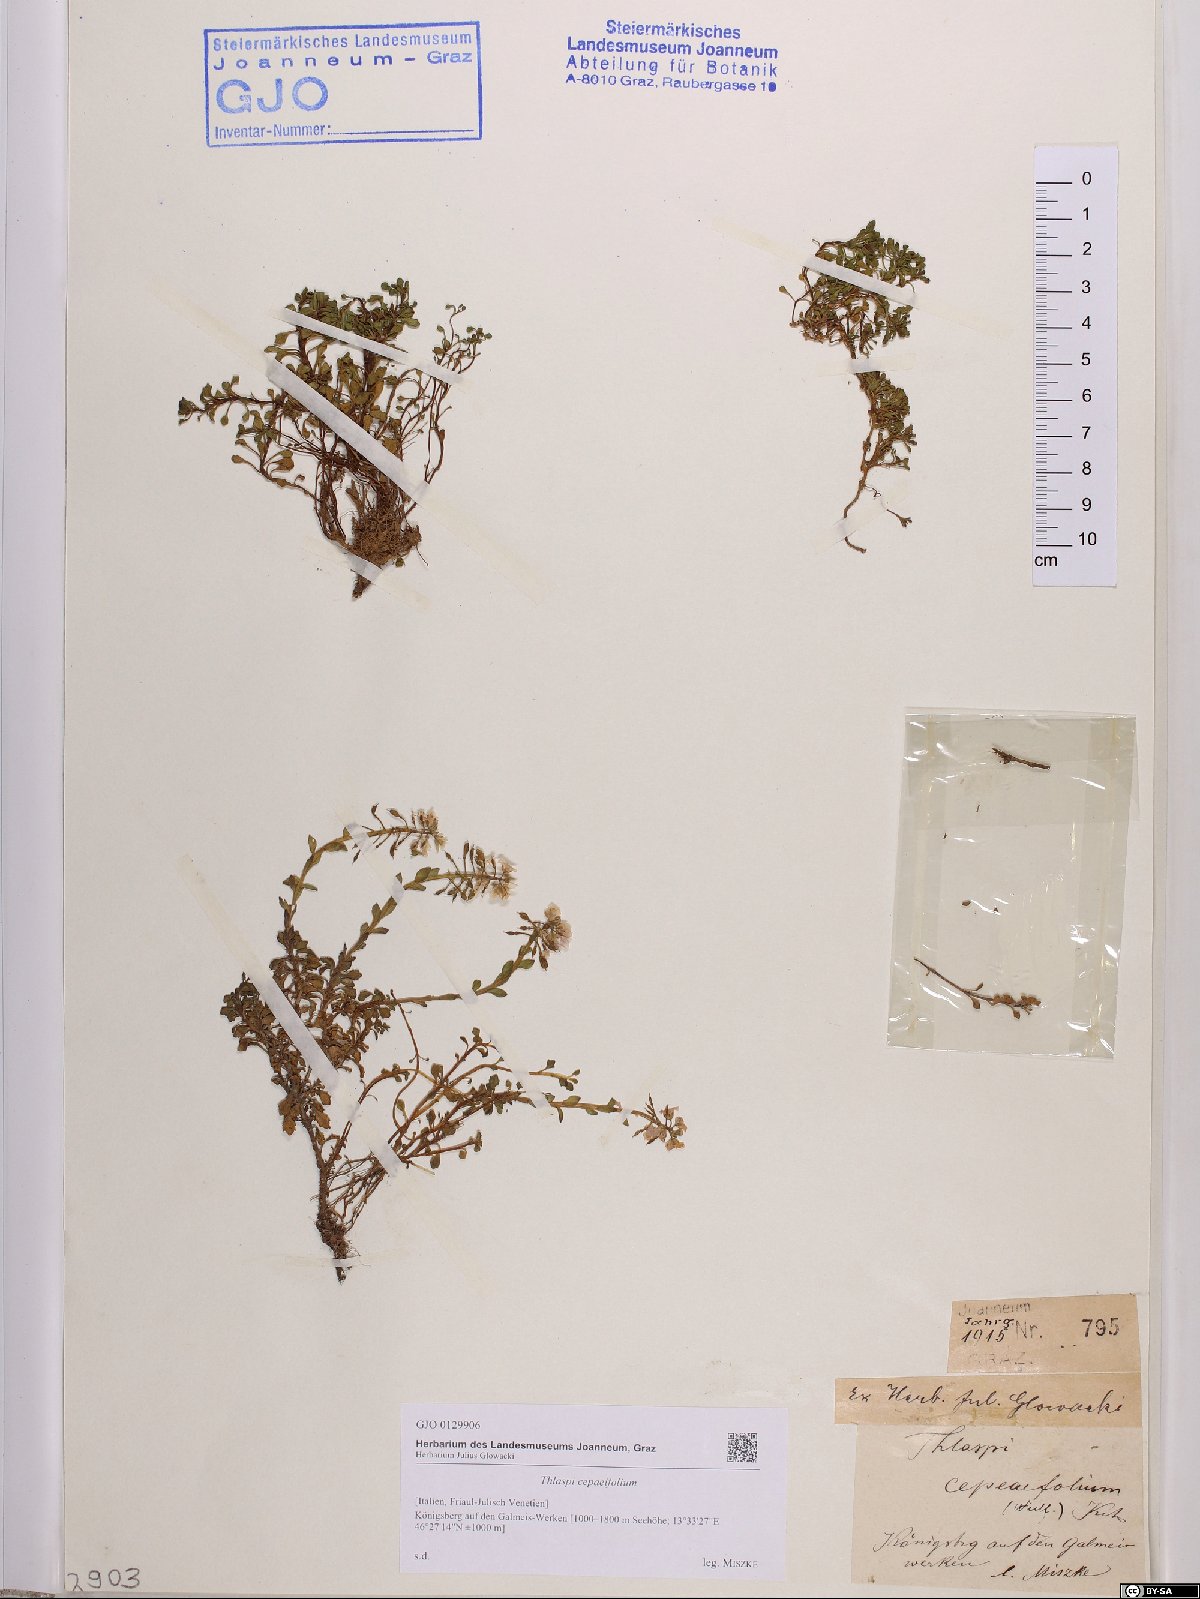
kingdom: Plantae
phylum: Tracheophyta
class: Magnoliopsida
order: Brassicales
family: Brassicaceae
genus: Noccaea
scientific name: Noccaea cepaeifolia
